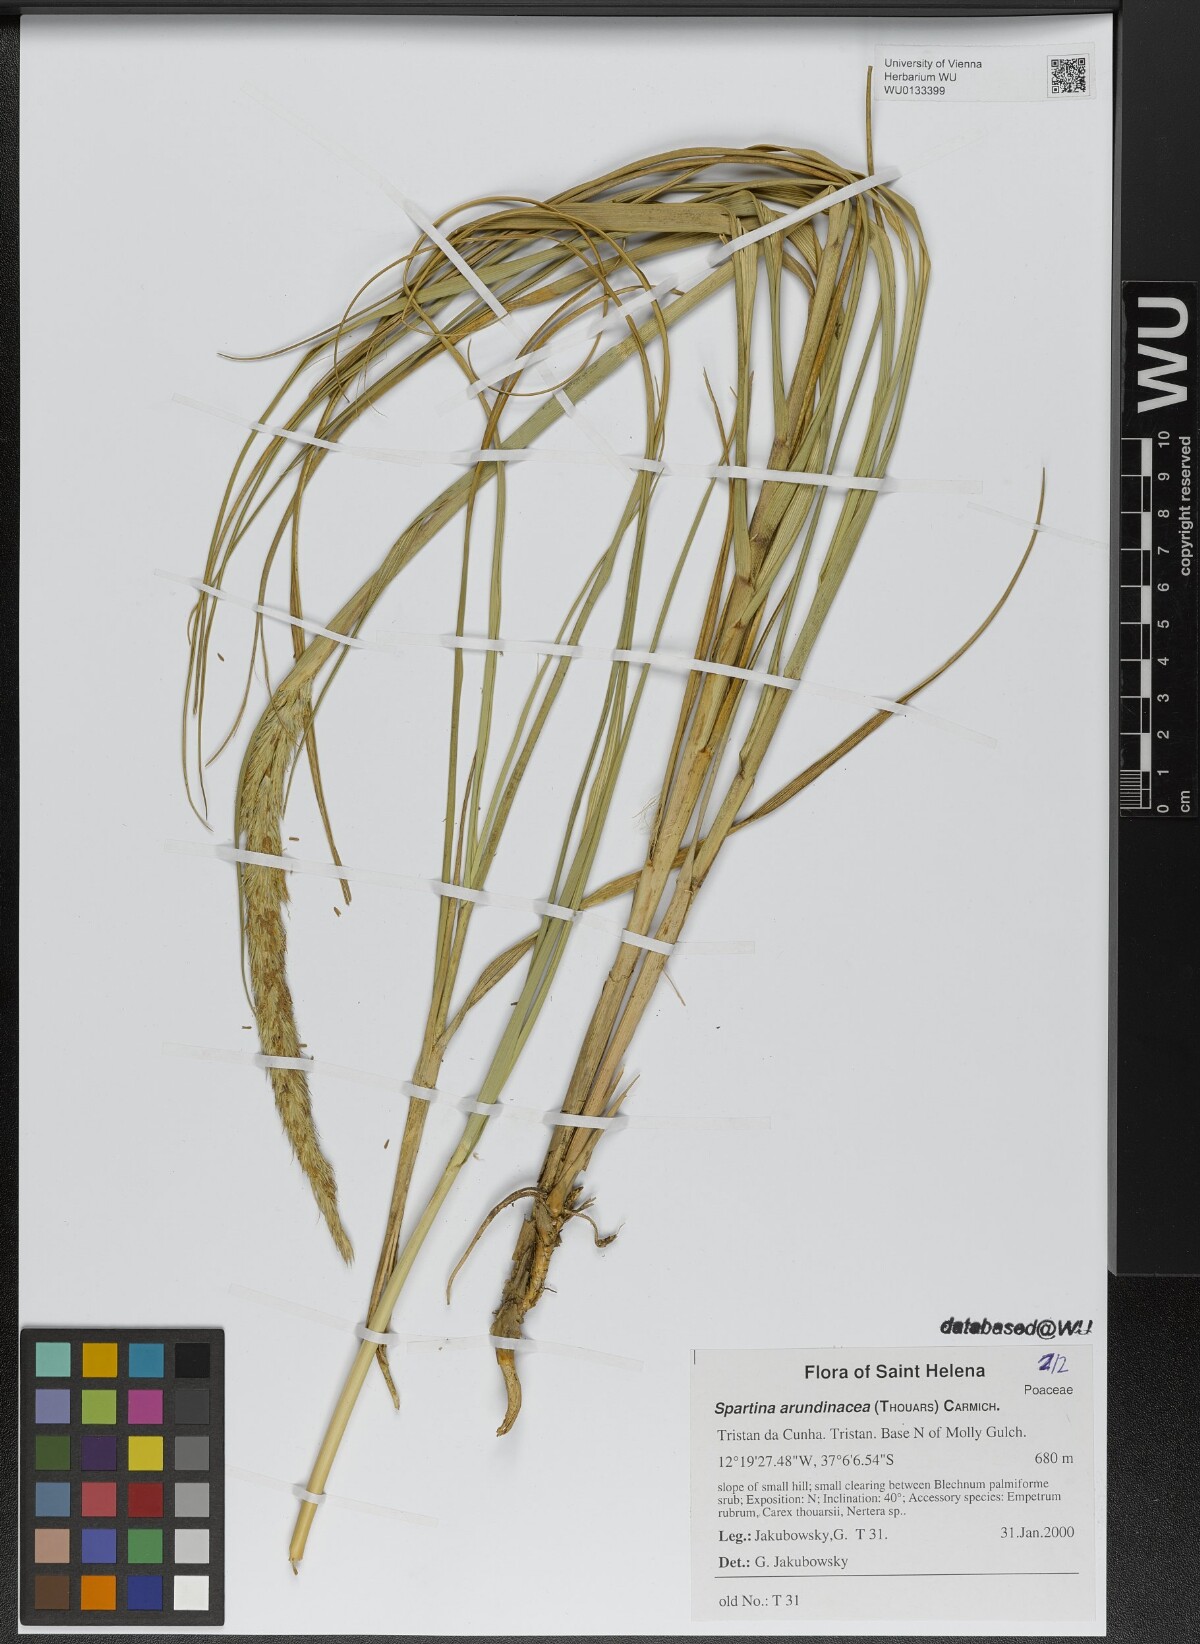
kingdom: Plantae
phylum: Tracheophyta
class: Liliopsida
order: Poales
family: Poaceae
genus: Sporobolus
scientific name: Sporobolus mobberleyanus
